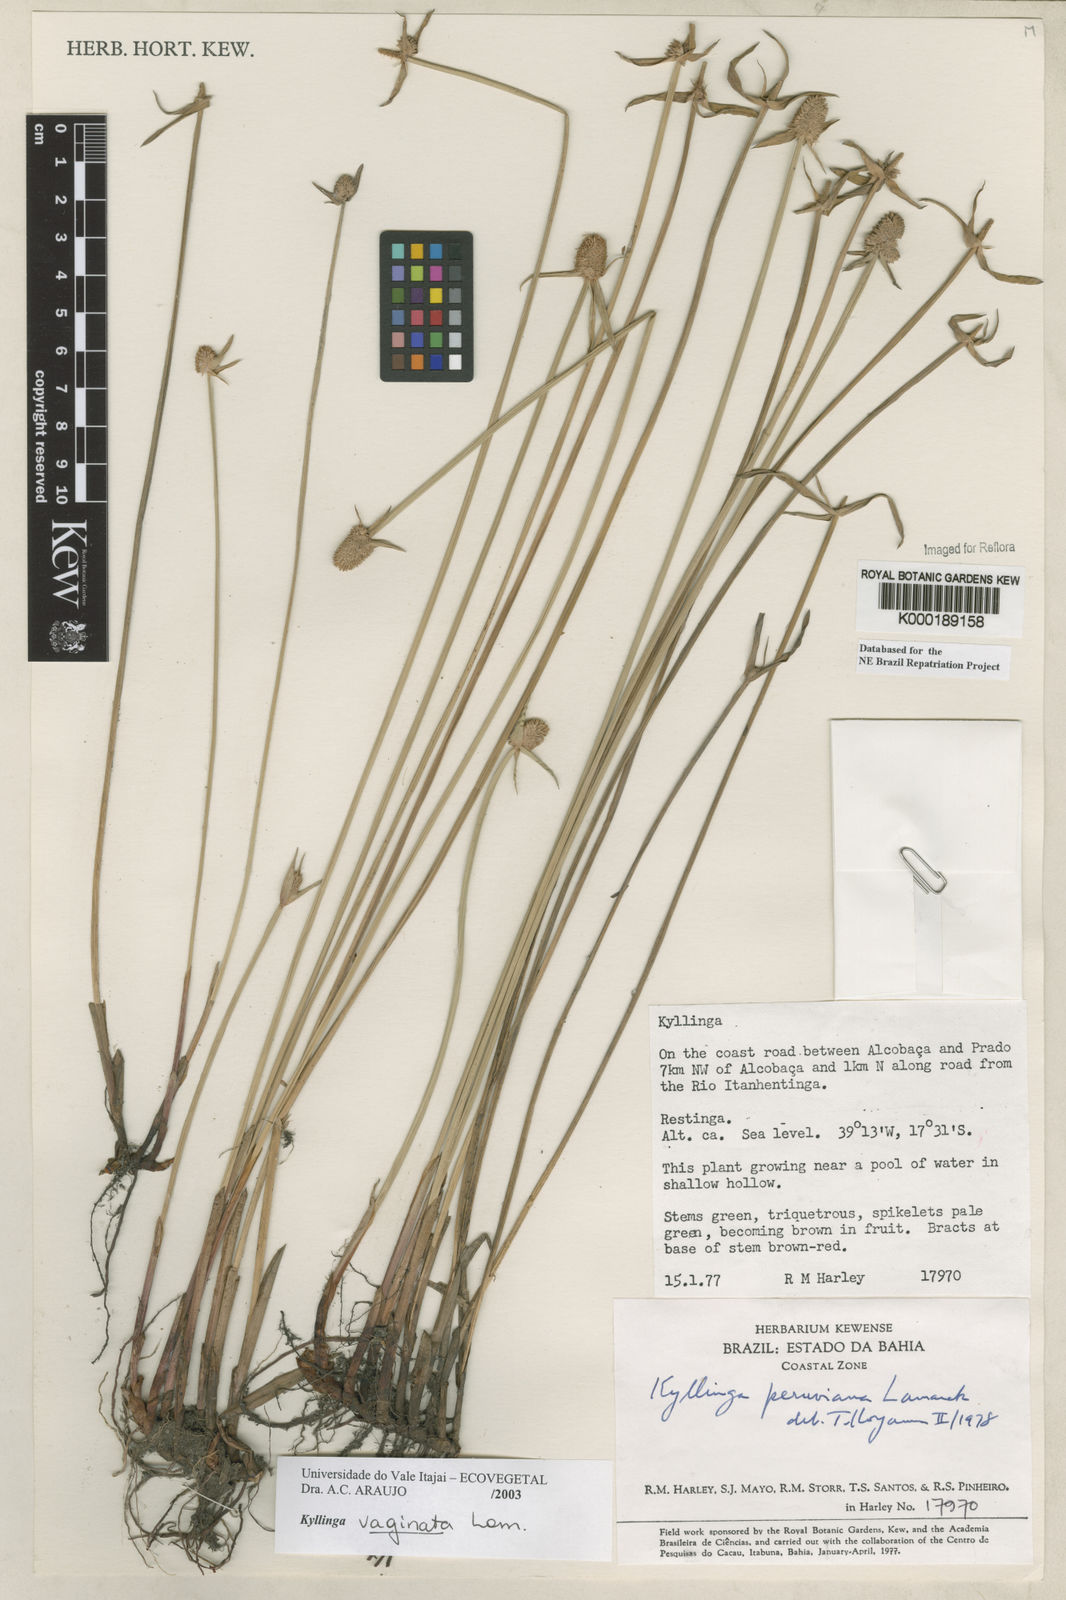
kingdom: Plantae
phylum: Tracheophyta
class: Liliopsida
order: Poales
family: Cyperaceae
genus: Cyperus
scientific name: Cyperus obtusatus
